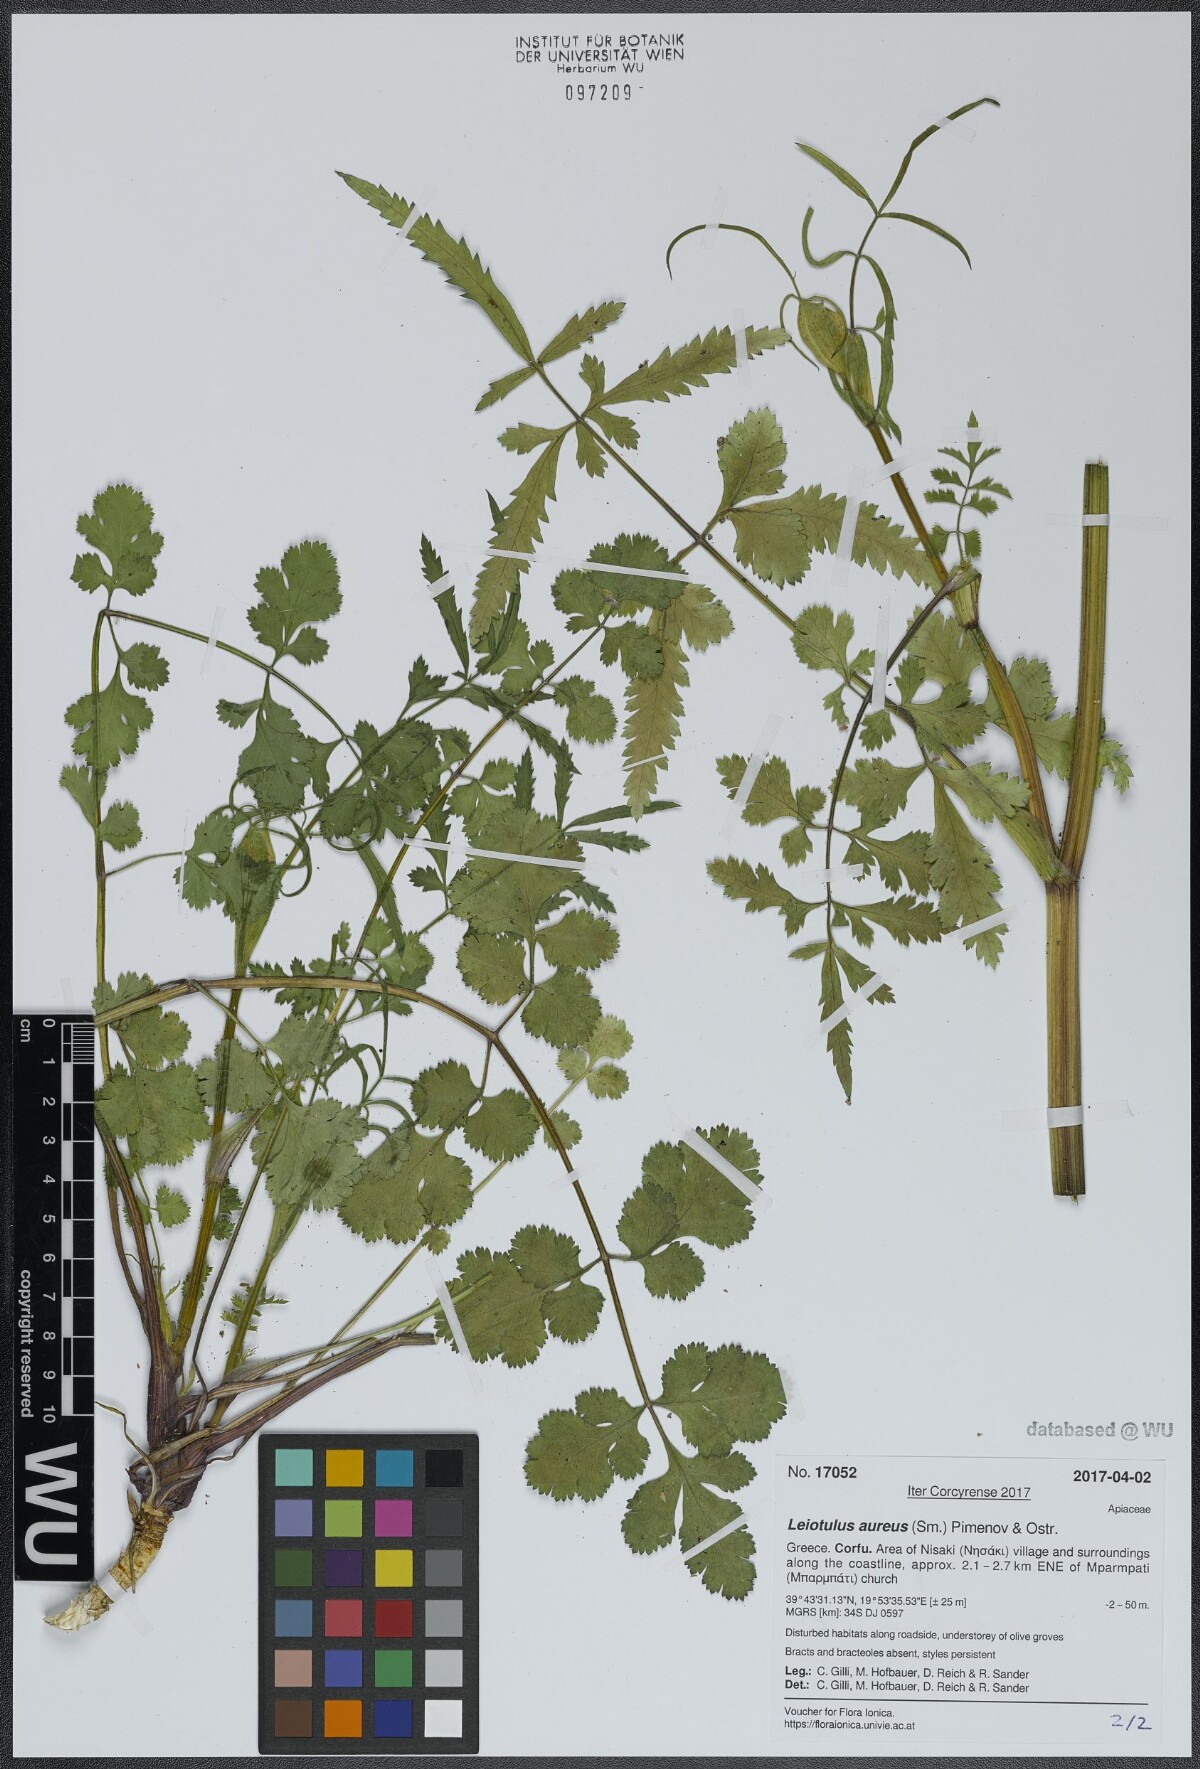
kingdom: Plantae
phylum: Tracheophyta
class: Magnoliopsida
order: Apiales
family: Apiaceae
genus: Leiotulus
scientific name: Leiotulus aureus
